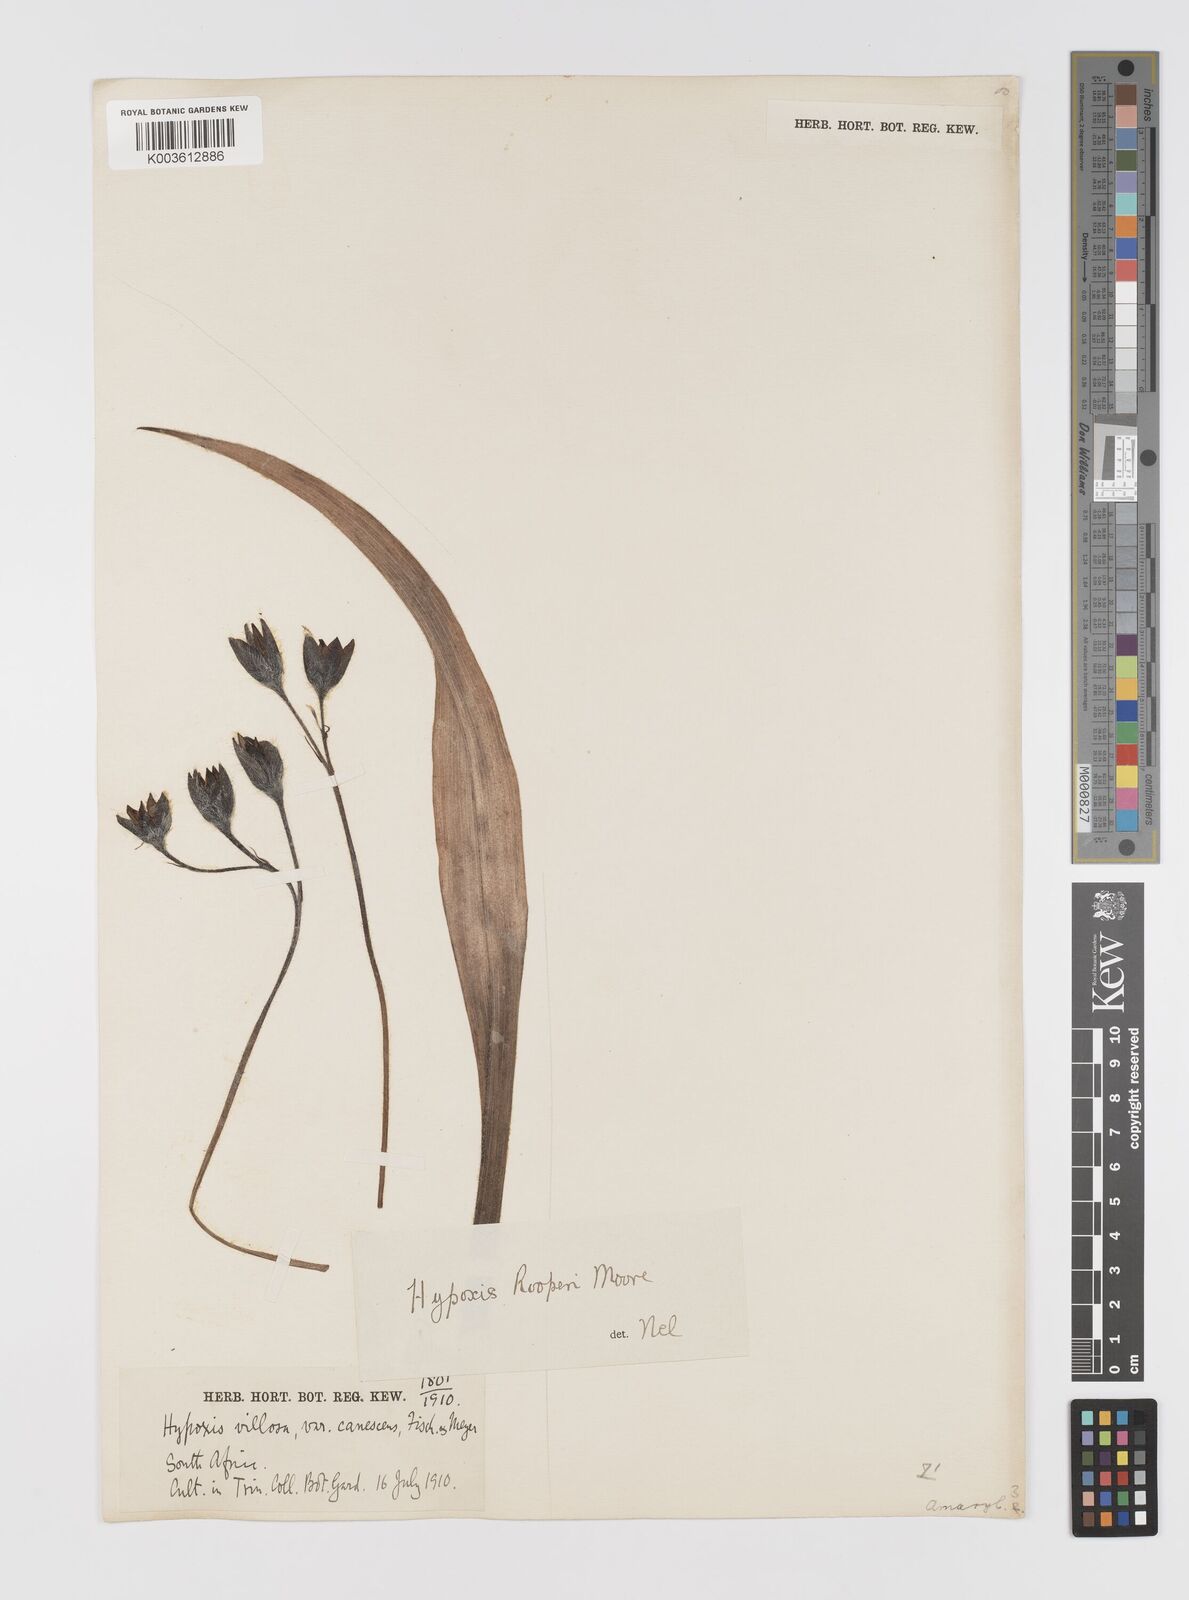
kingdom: Plantae
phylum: Tracheophyta
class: Liliopsida
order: Asparagales
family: Hypoxidaceae
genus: Hypoxis
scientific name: Hypoxis hemerocallidea
